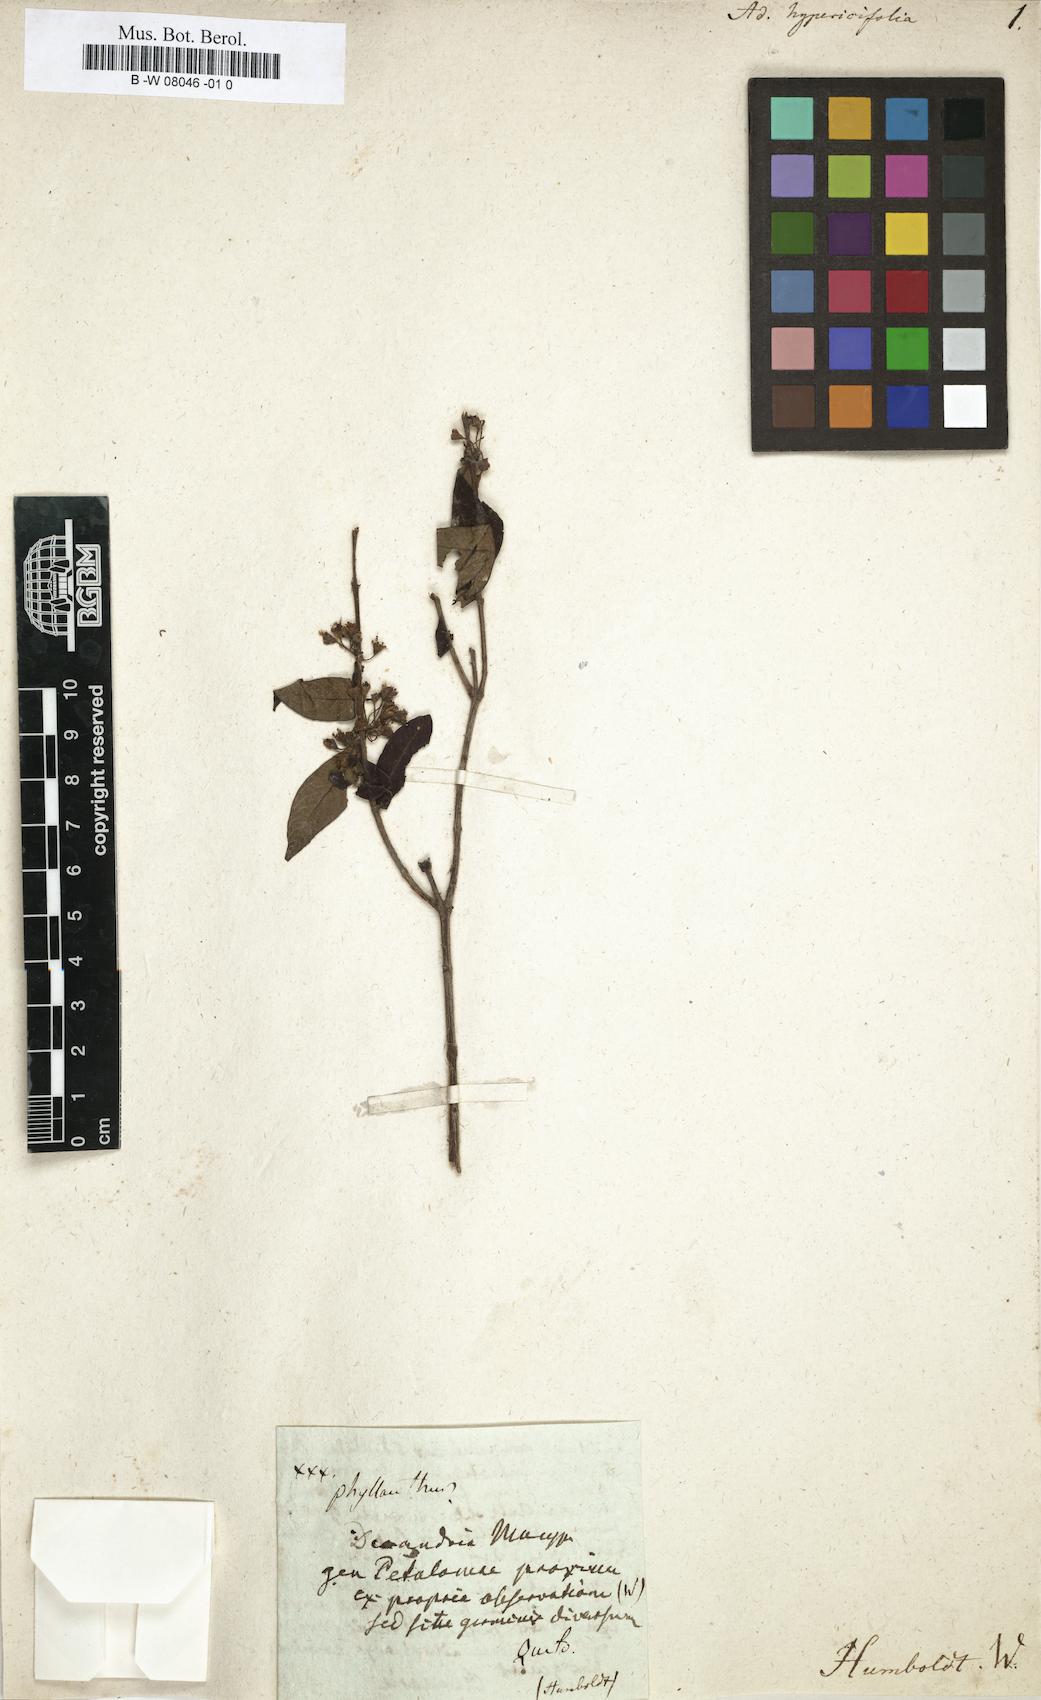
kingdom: Plantae
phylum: Tracheophyta
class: Magnoliopsida
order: Myrtales
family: Lythraceae
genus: Adenaria
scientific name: Adenaria
